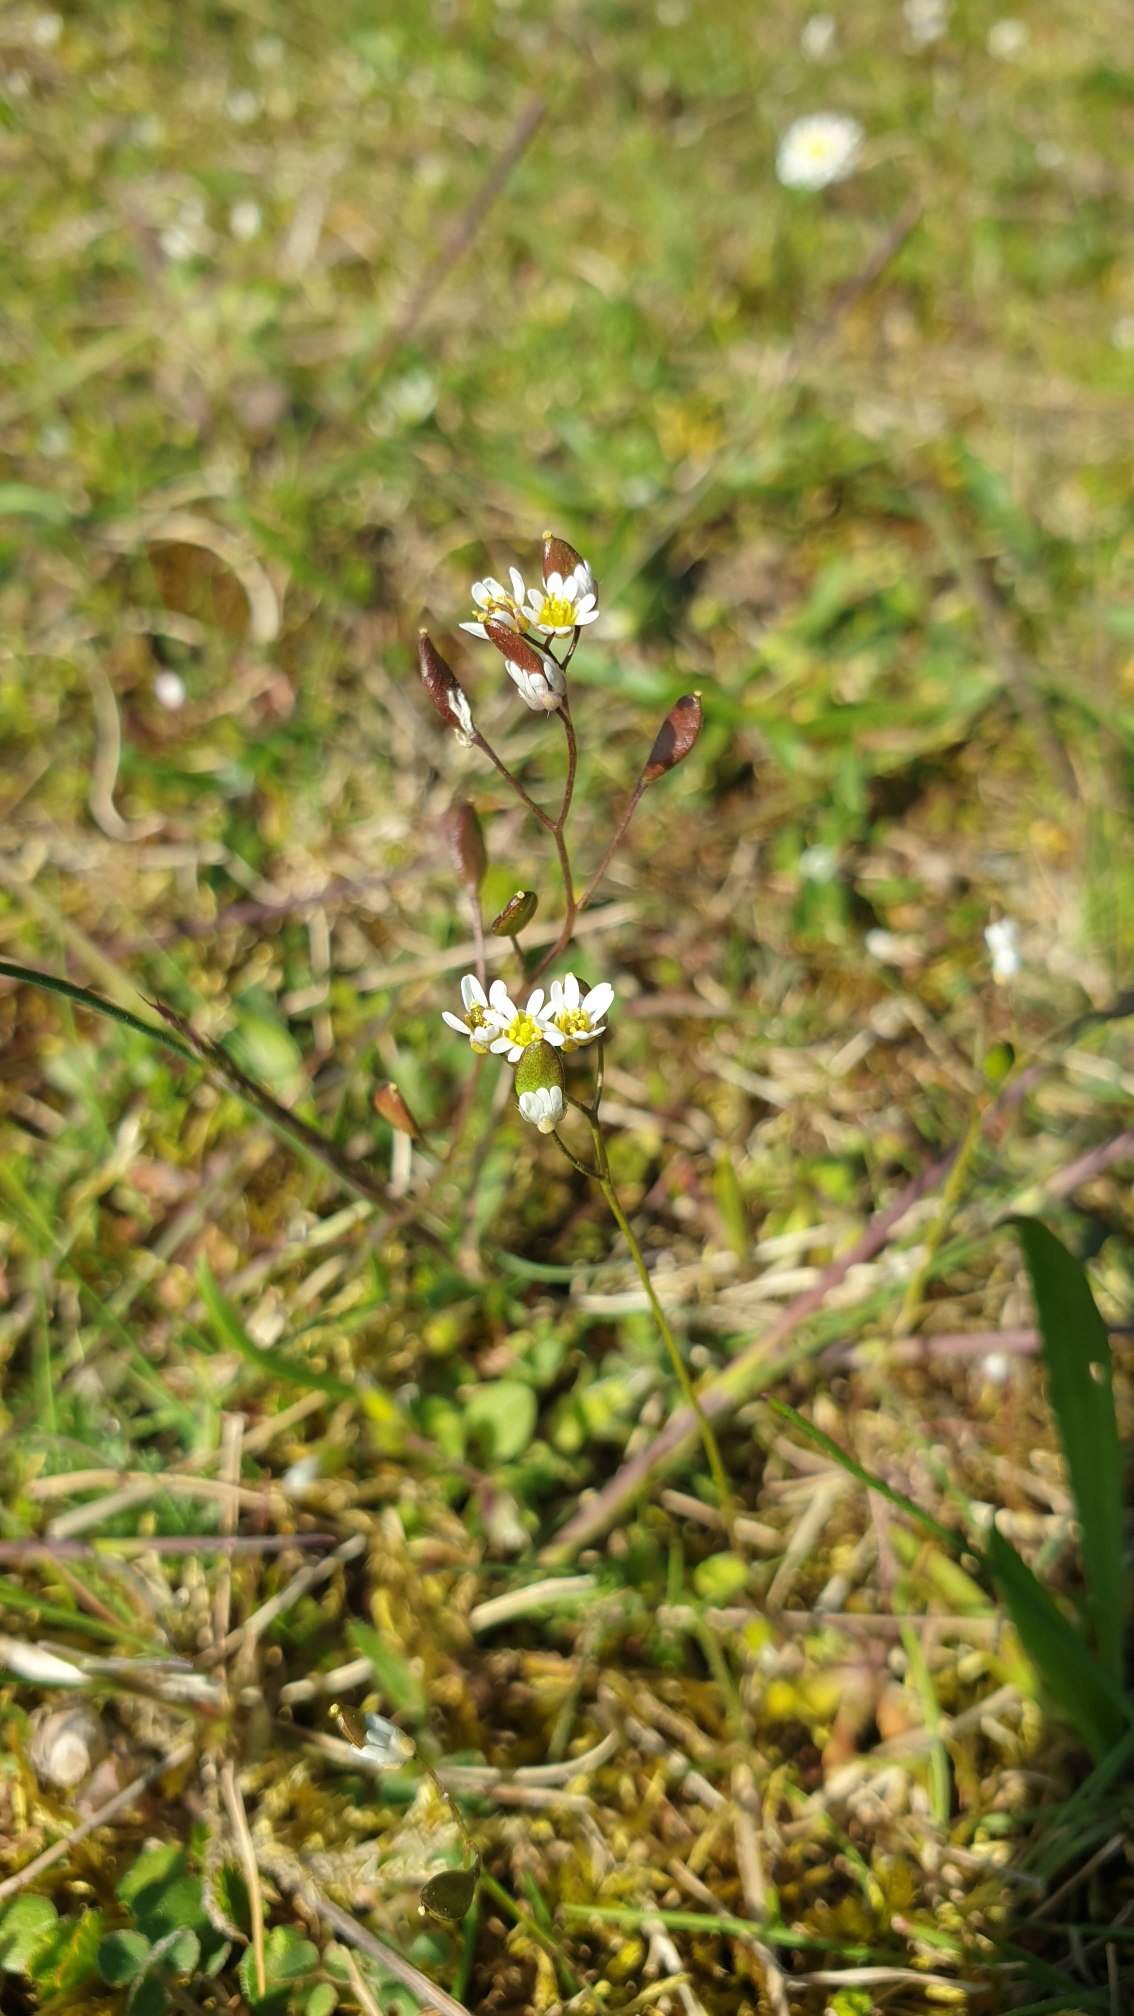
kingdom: Plantae
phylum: Tracheophyta
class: Magnoliopsida
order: Brassicales
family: Brassicaceae
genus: Draba
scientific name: Draba verna
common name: Vår-gæslingeblomst
